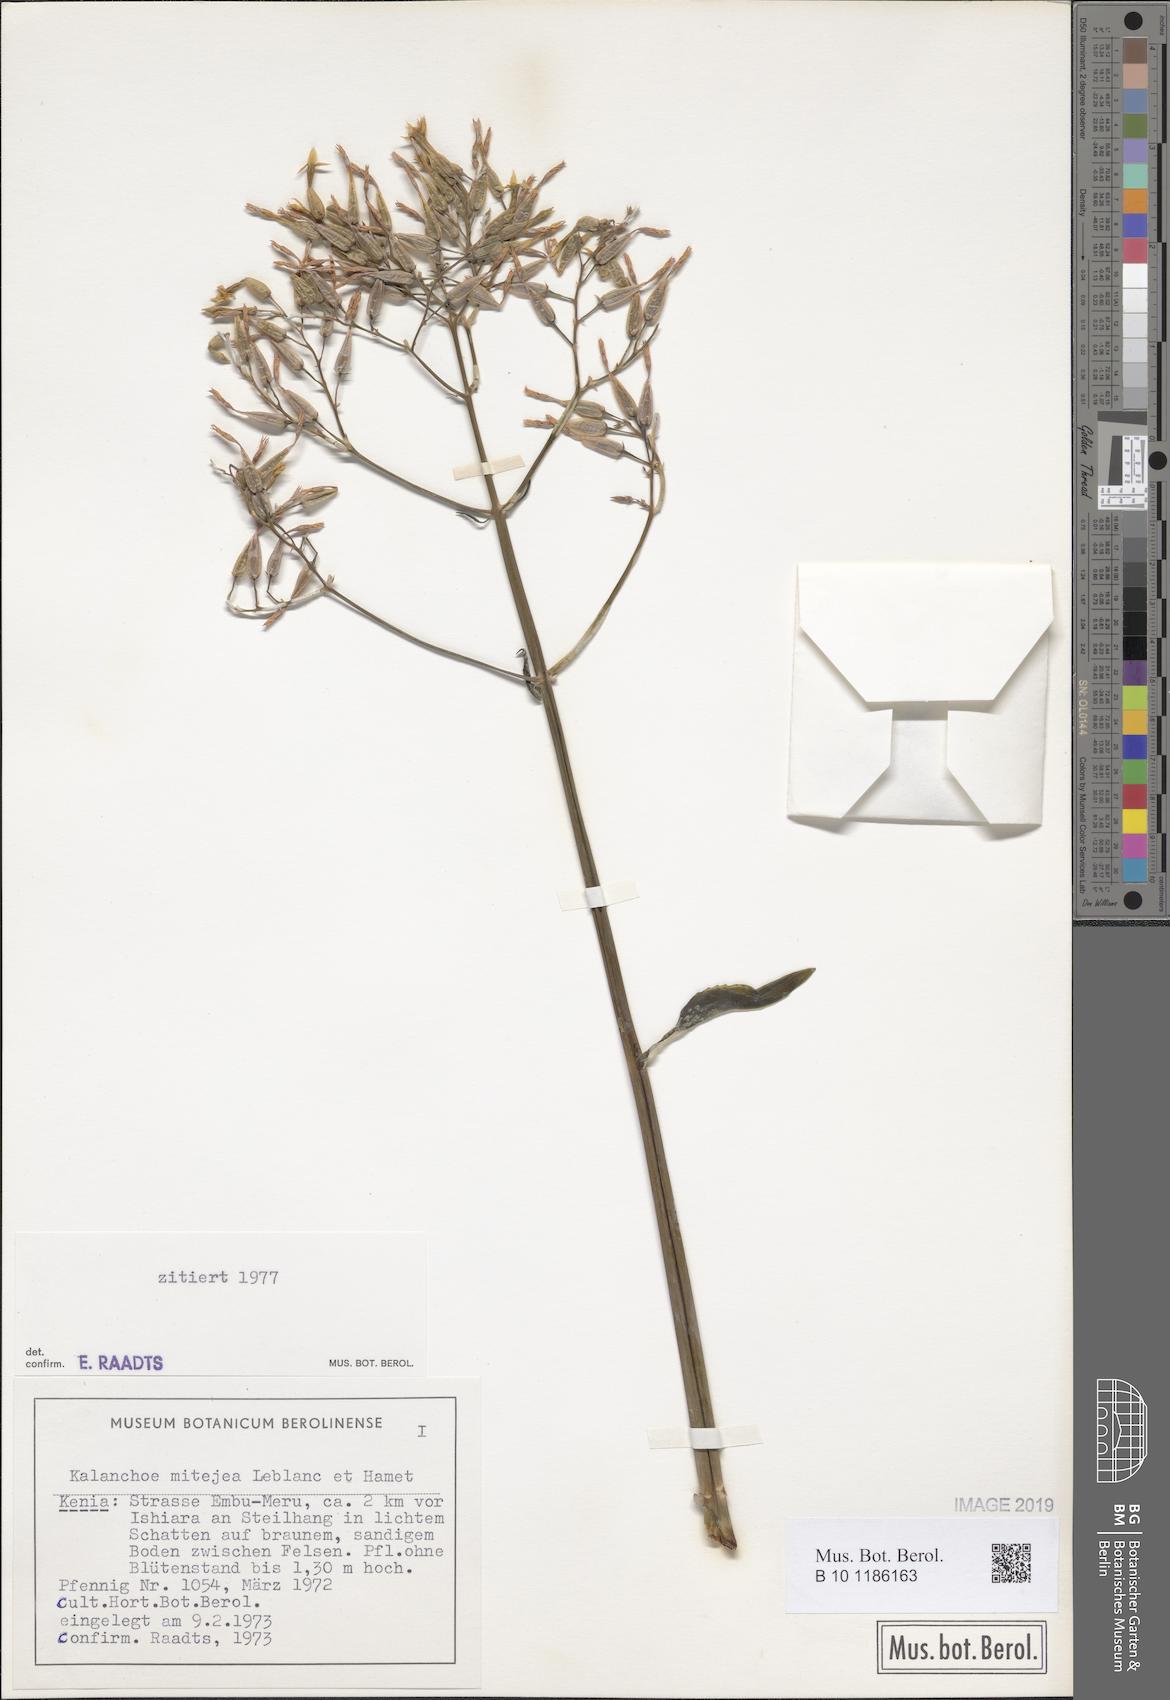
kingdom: Plantae
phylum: Tracheophyta
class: Magnoliopsida
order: Saxifragales
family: Crassulaceae
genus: Kalanchoe
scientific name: Kalanchoe mitejea
